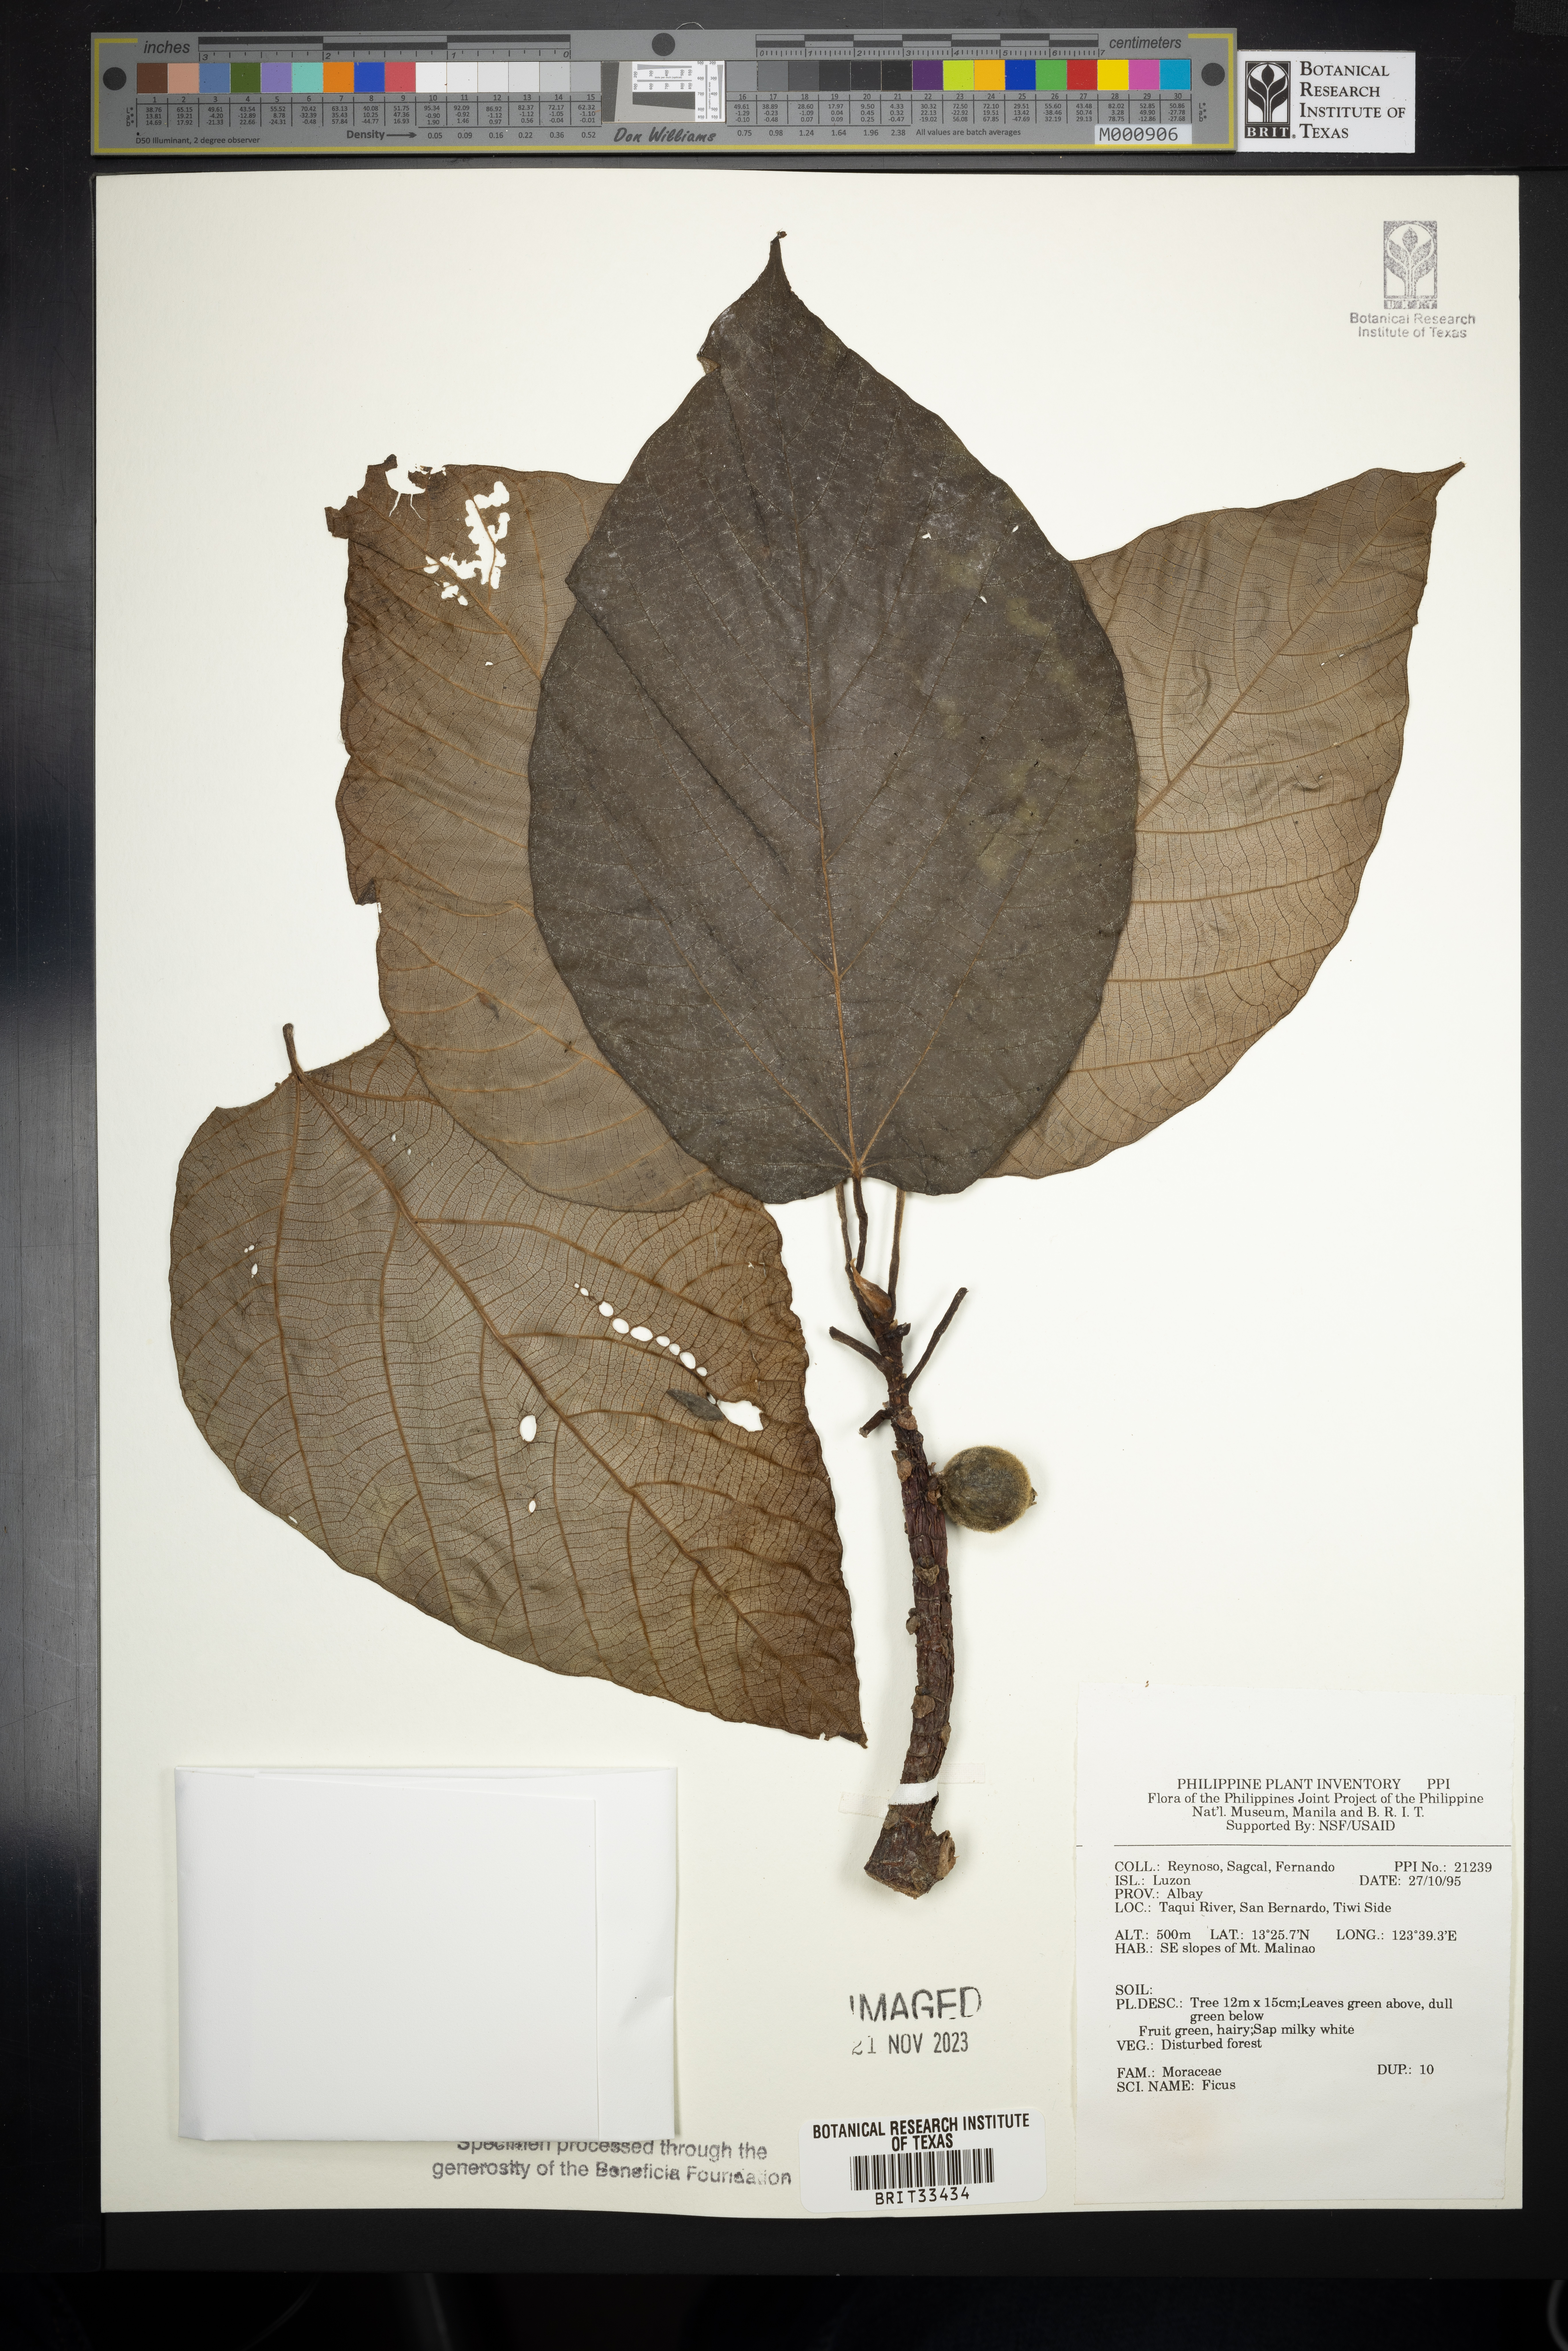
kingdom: Plantae
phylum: Tracheophyta
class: Magnoliopsida
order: Rosales
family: Moraceae
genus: Ficus
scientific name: Ficus
